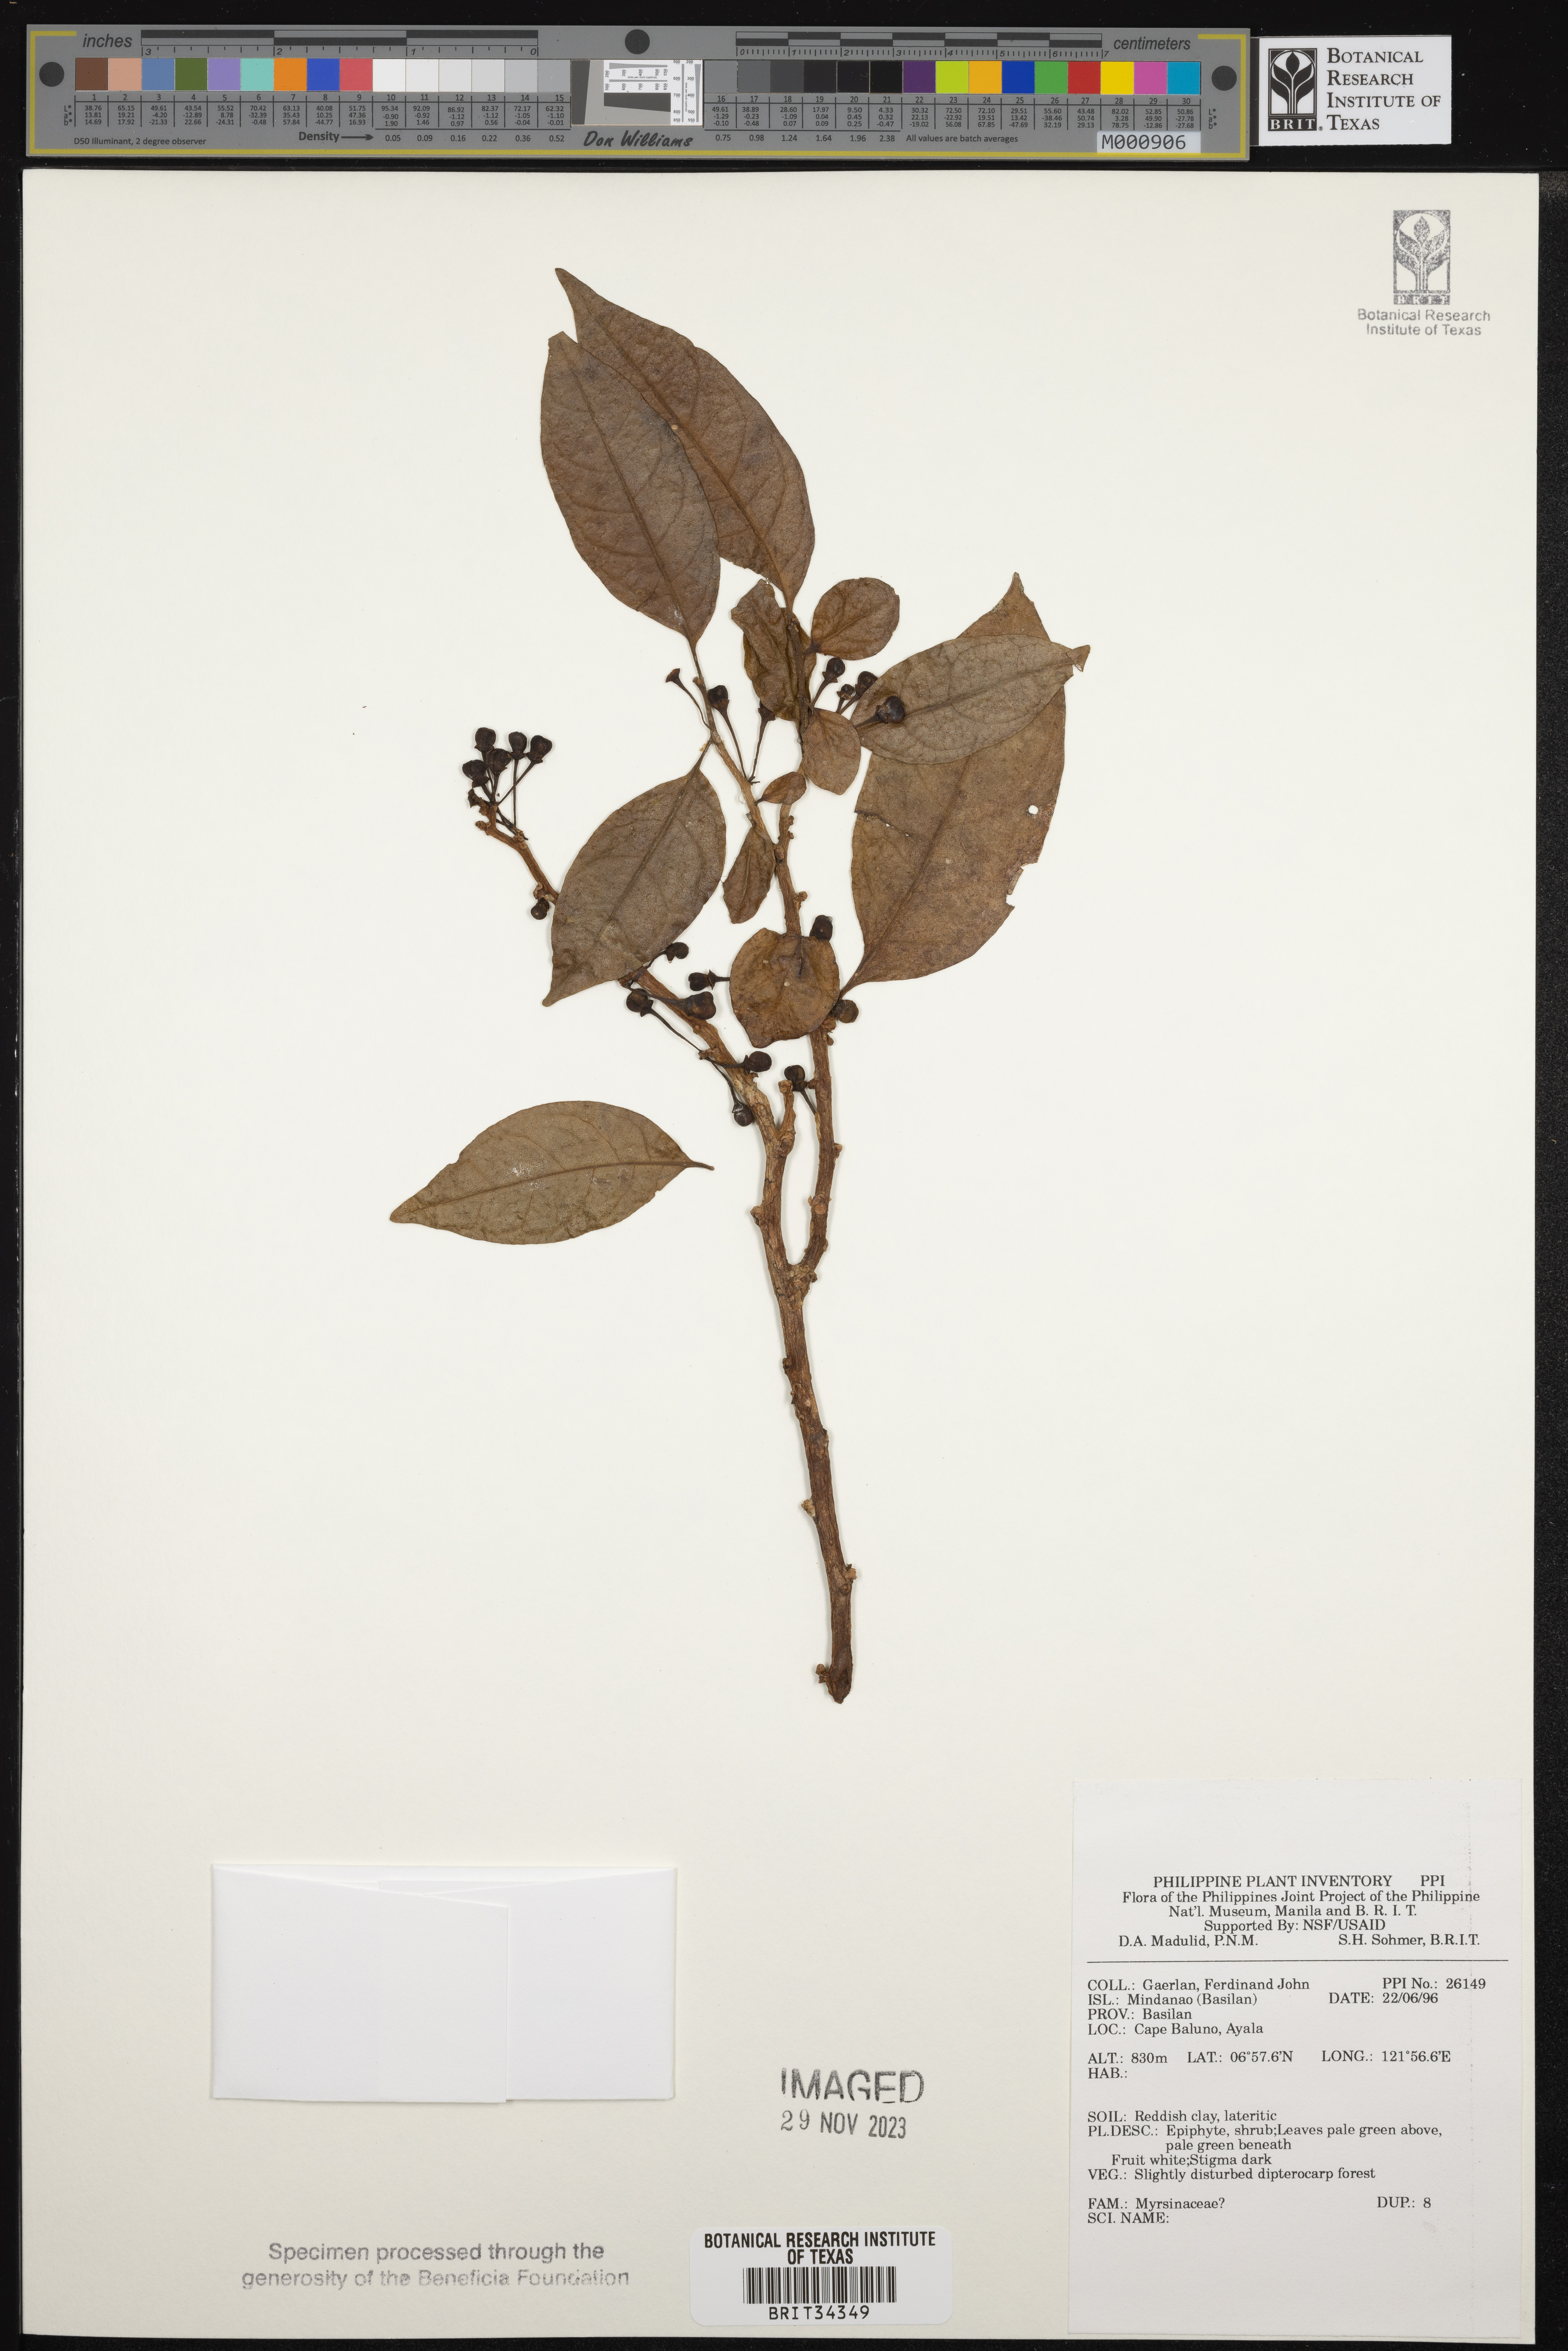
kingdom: Plantae
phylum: Tracheophyta
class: Magnoliopsida
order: Ericales
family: Primulaceae
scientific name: Primulaceae
